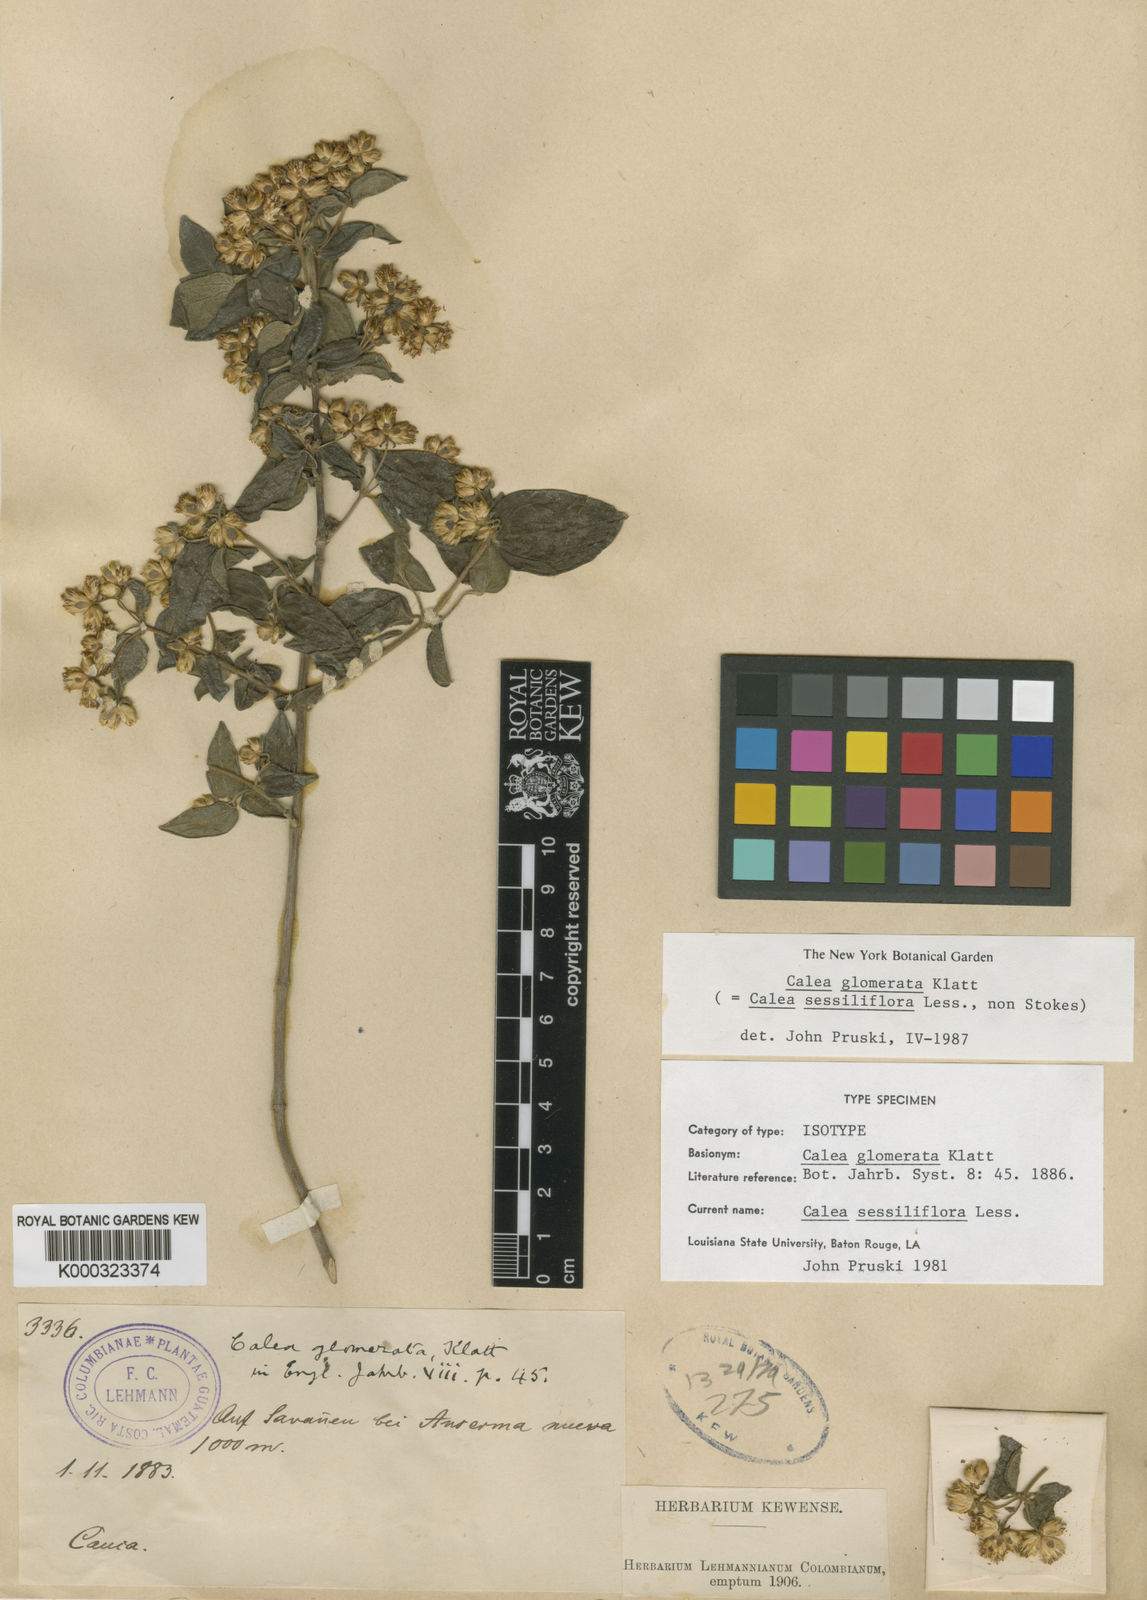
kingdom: Plantae
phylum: Tracheophyta
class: Magnoliopsida
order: Asterales
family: Asteraceae
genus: Calea
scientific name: Calea sessiliflora
